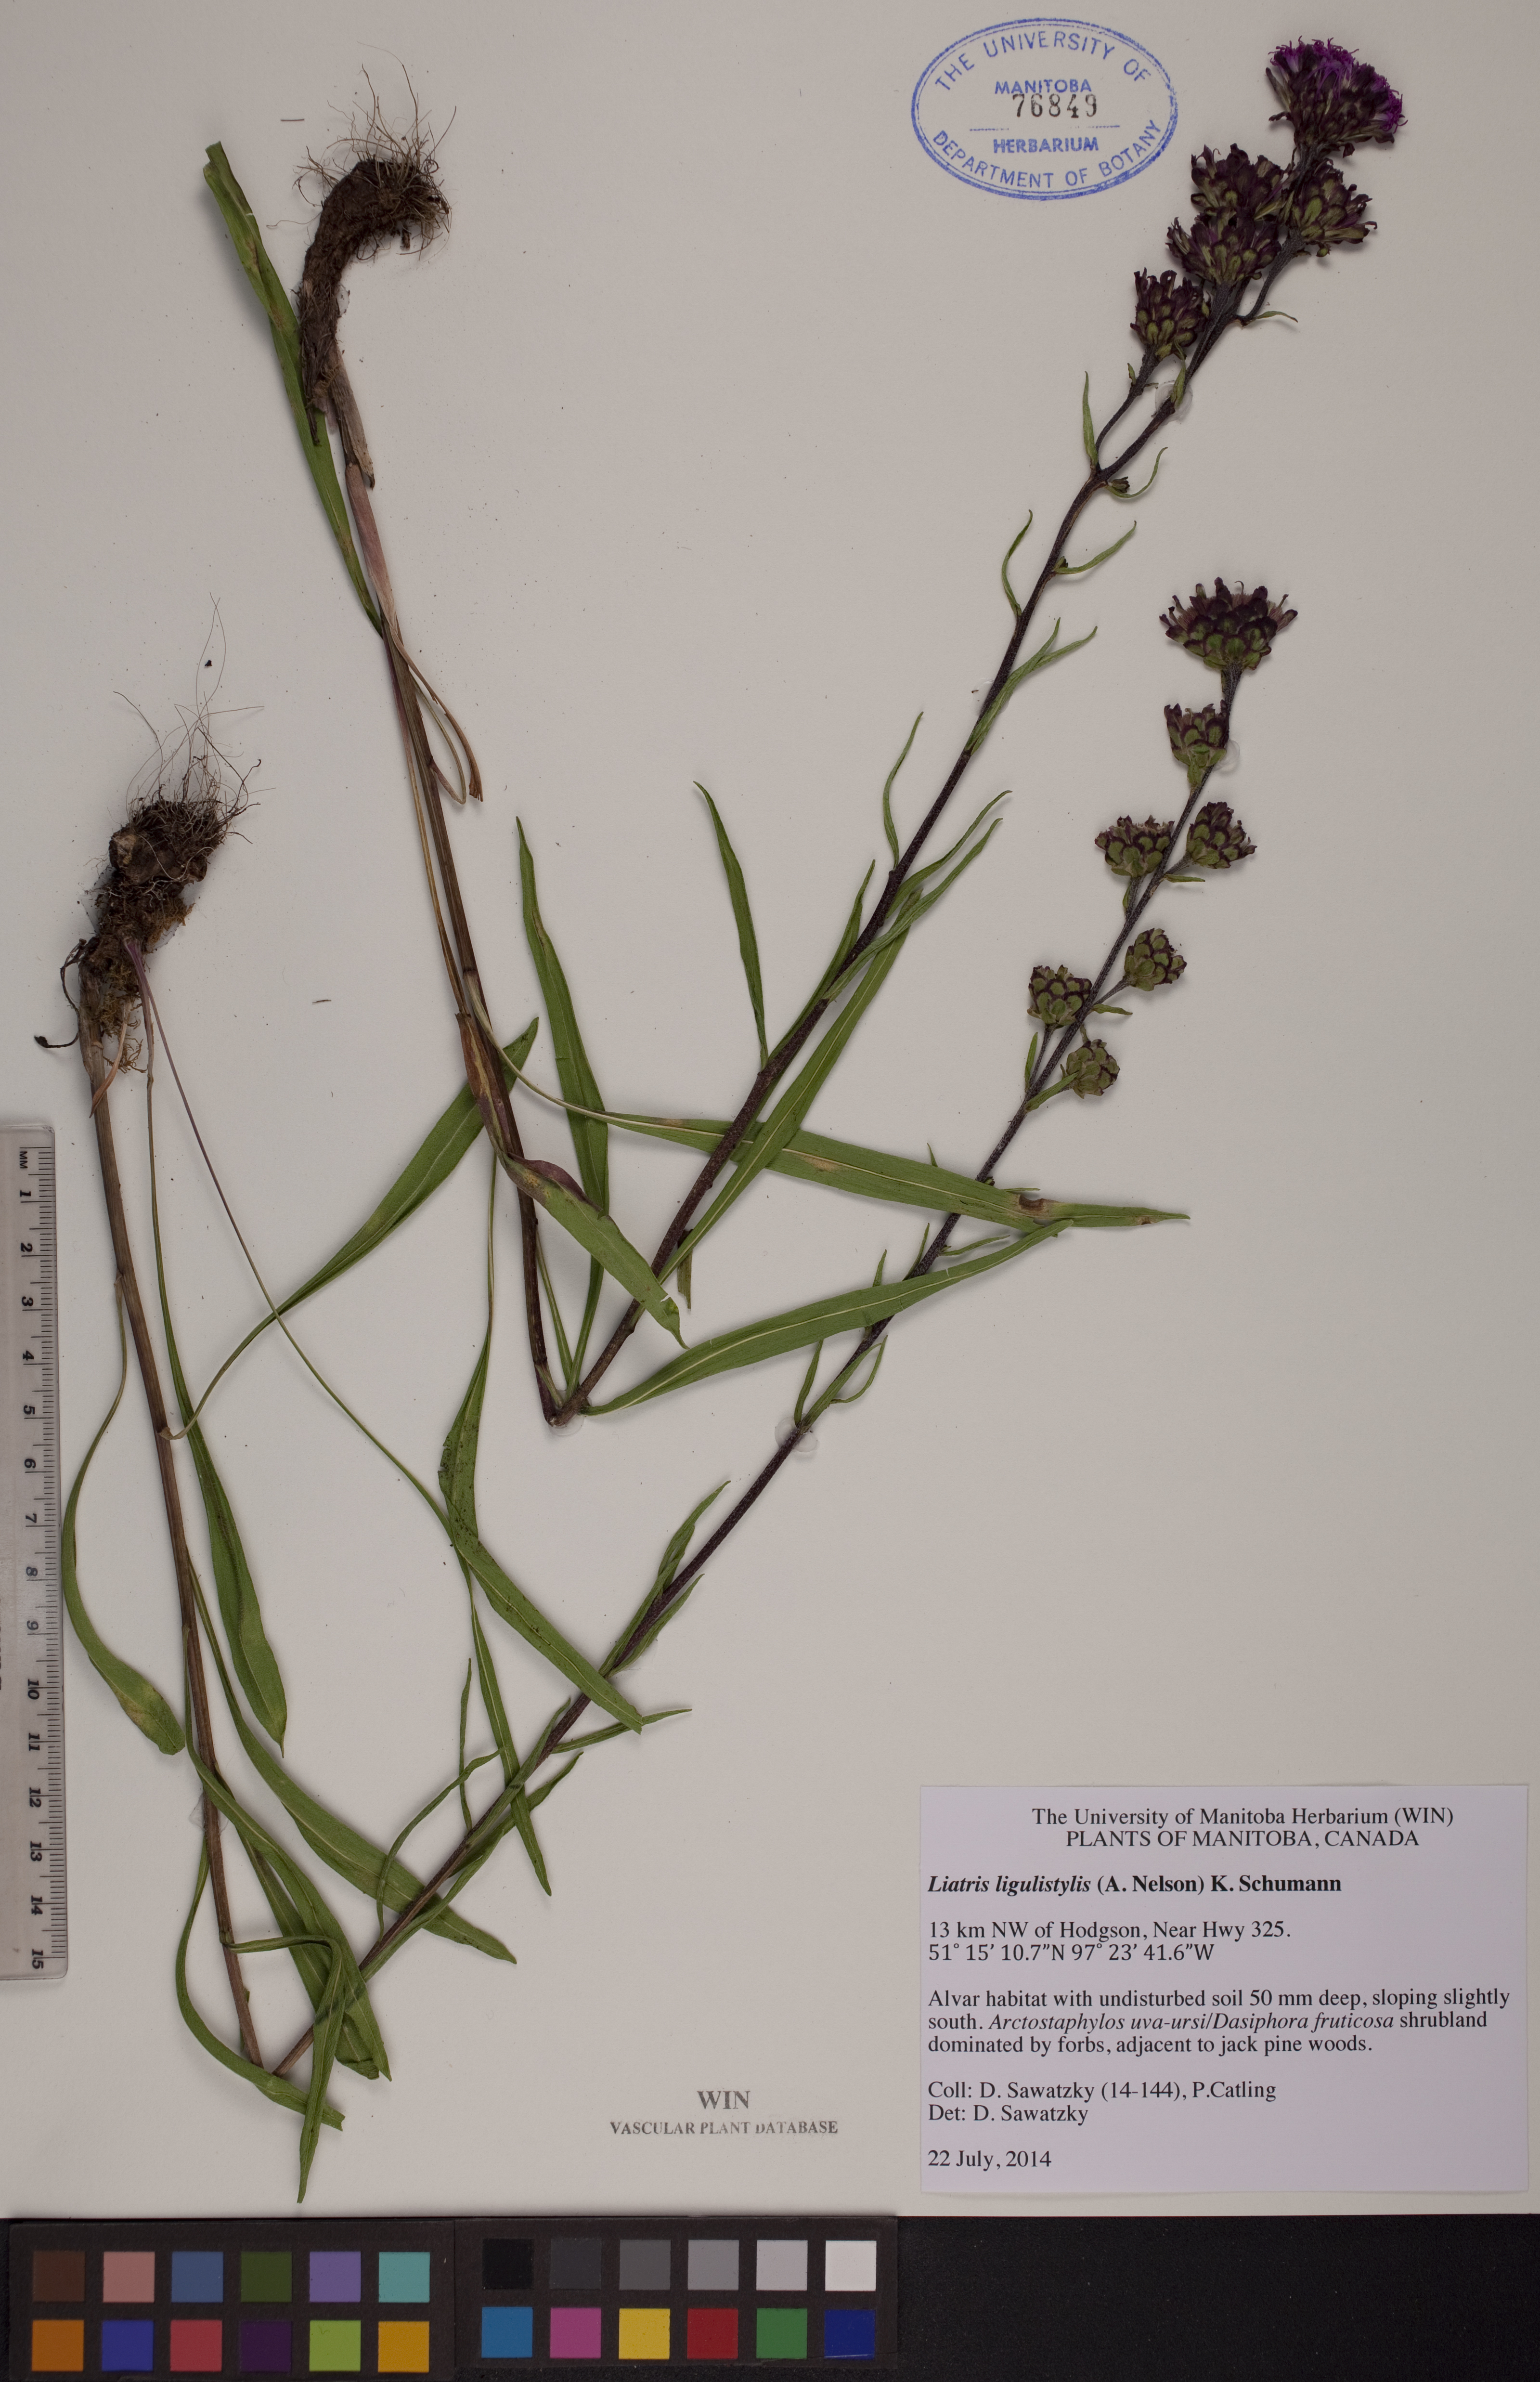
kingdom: Plantae
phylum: Tracheophyta
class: Magnoliopsida
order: Asterales
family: Asteraceae
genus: Liatris
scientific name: Liatris ligulistylis
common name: Northern plains gayfeather
